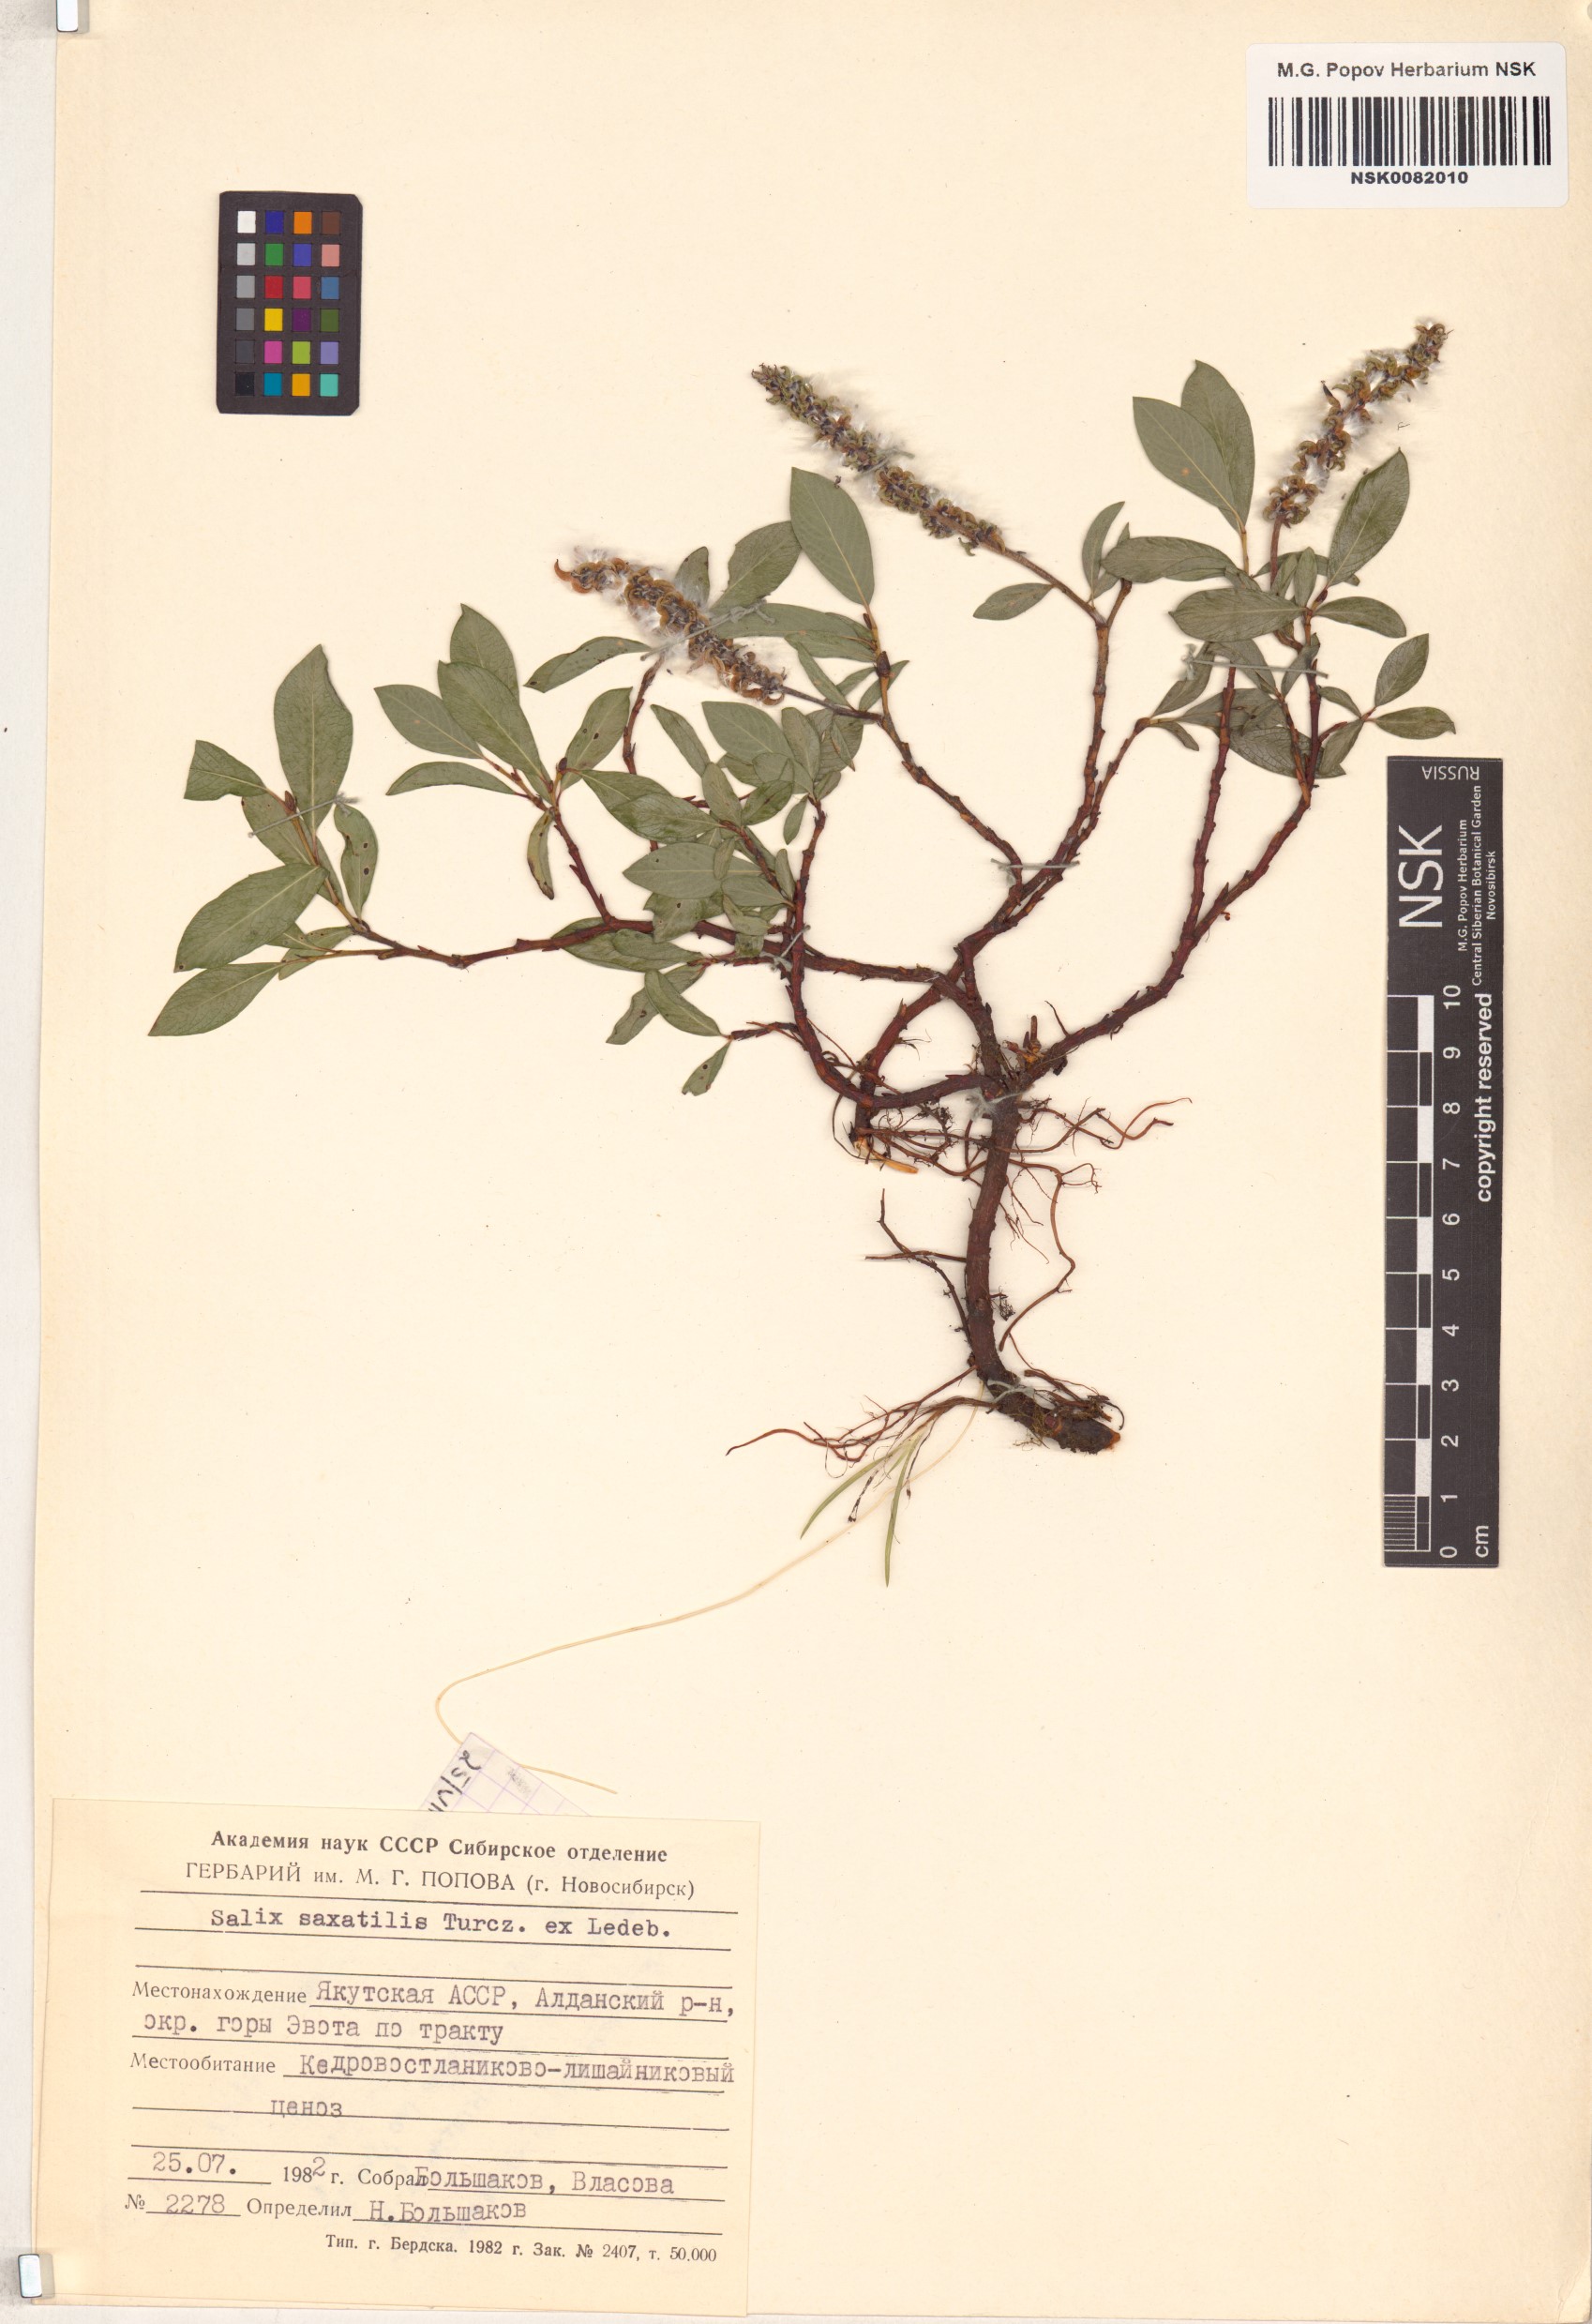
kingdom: Plantae
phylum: Tracheophyta
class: Magnoliopsida
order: Malpighiales
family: Salicaceae
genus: Salix
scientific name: Salix saxatilis
